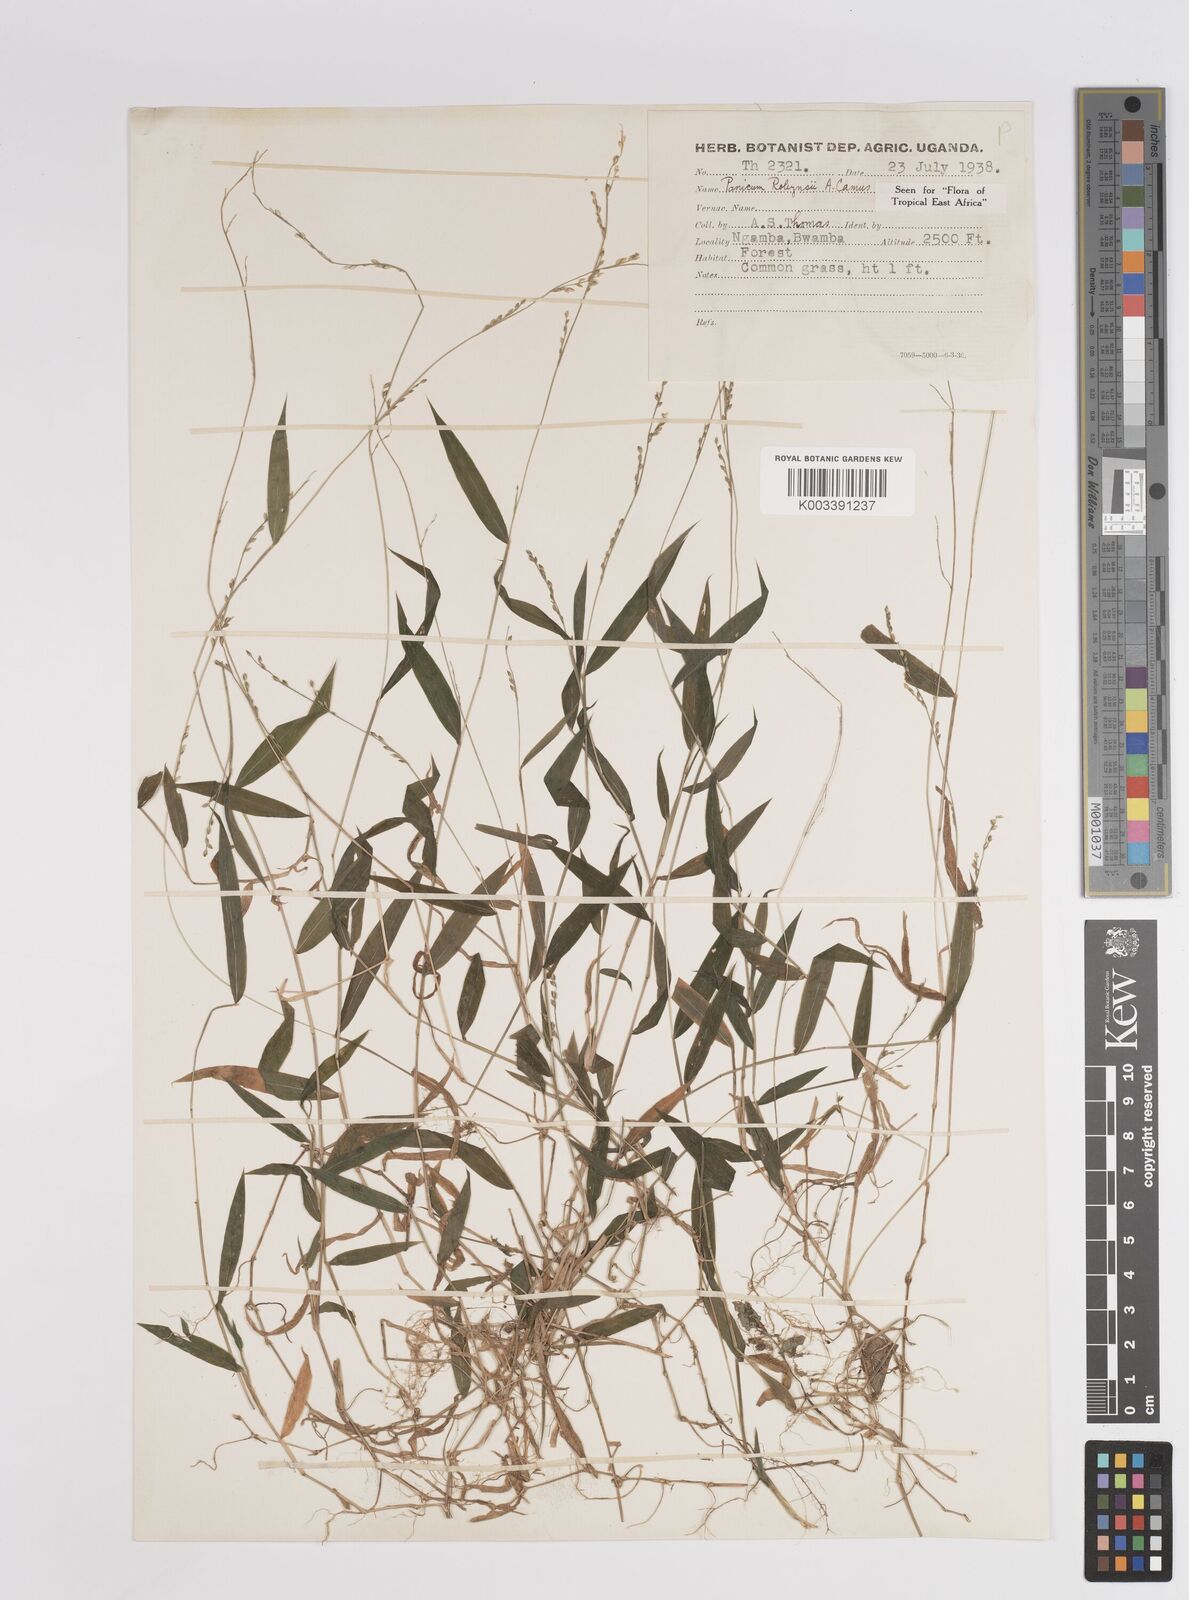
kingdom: Plantae
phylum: Tracheophyta
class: Liliopsida
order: Poales
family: Poaceae
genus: Panicum
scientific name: Panicum robynsii
